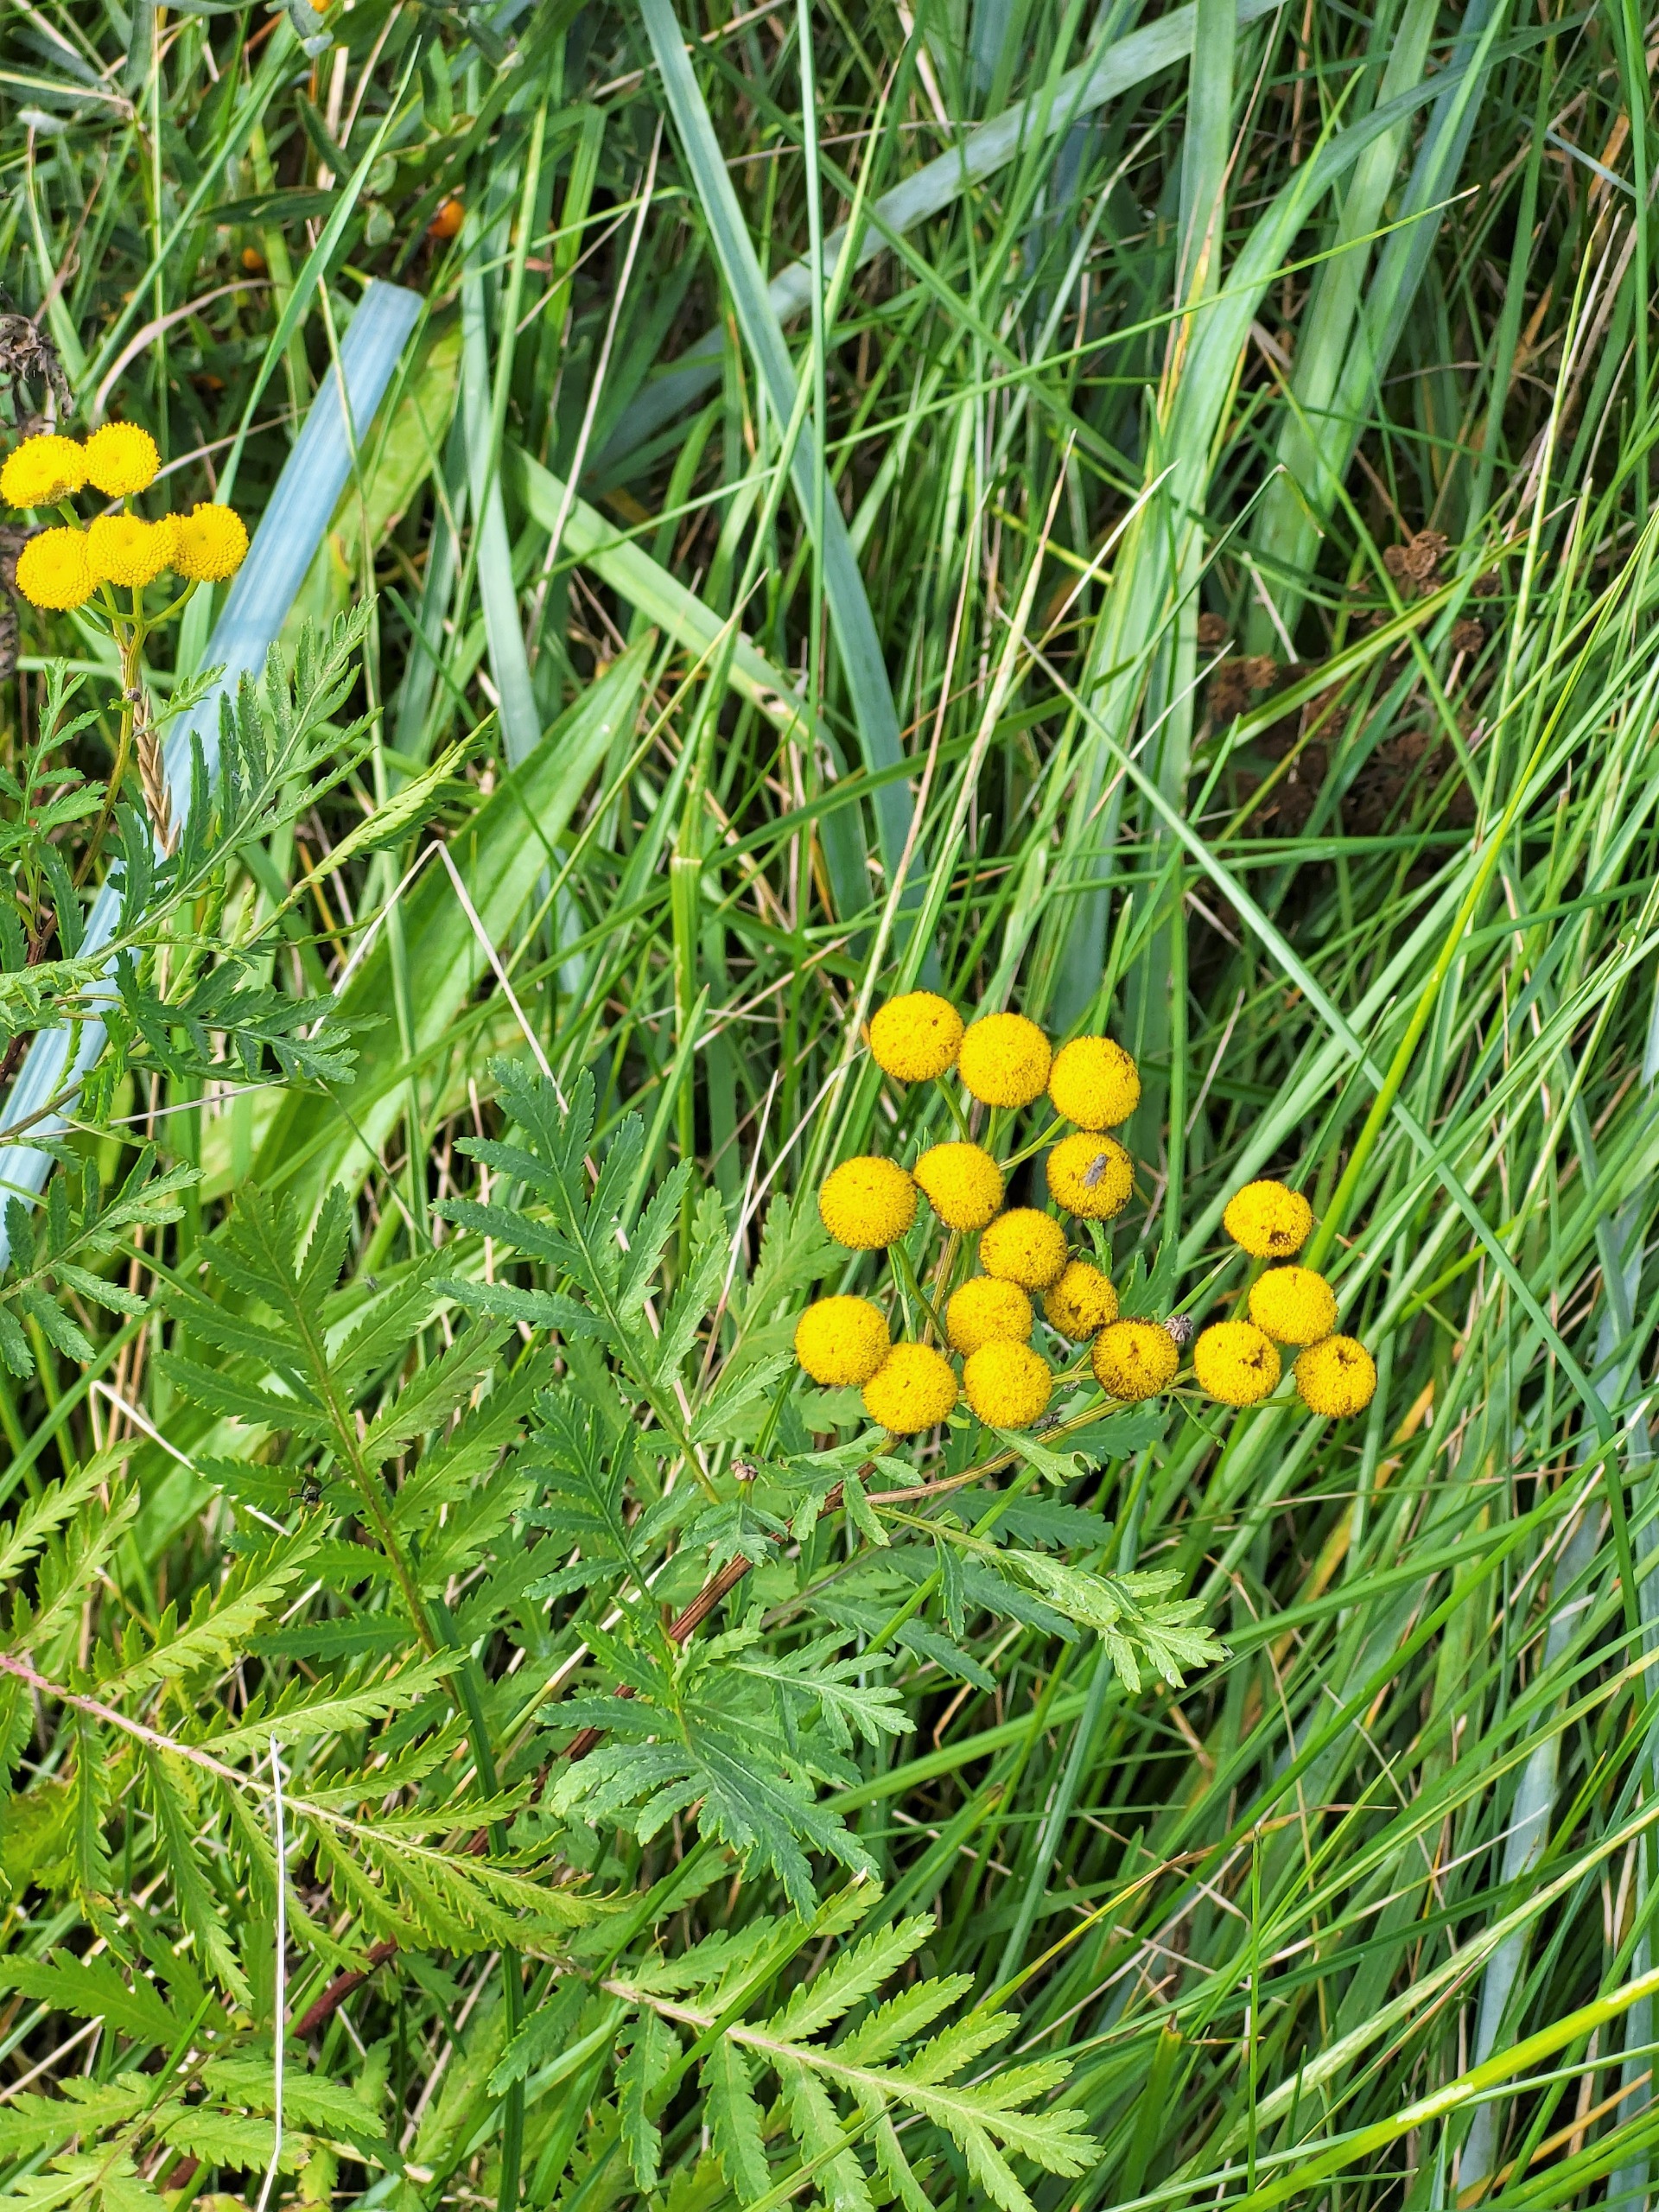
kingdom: Plantae
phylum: Tracheophyta
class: Magnoliopsida
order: Asterales
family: Asteraceae
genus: Tanacetum
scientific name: Tanacetum vulgare
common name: Rejnfan
